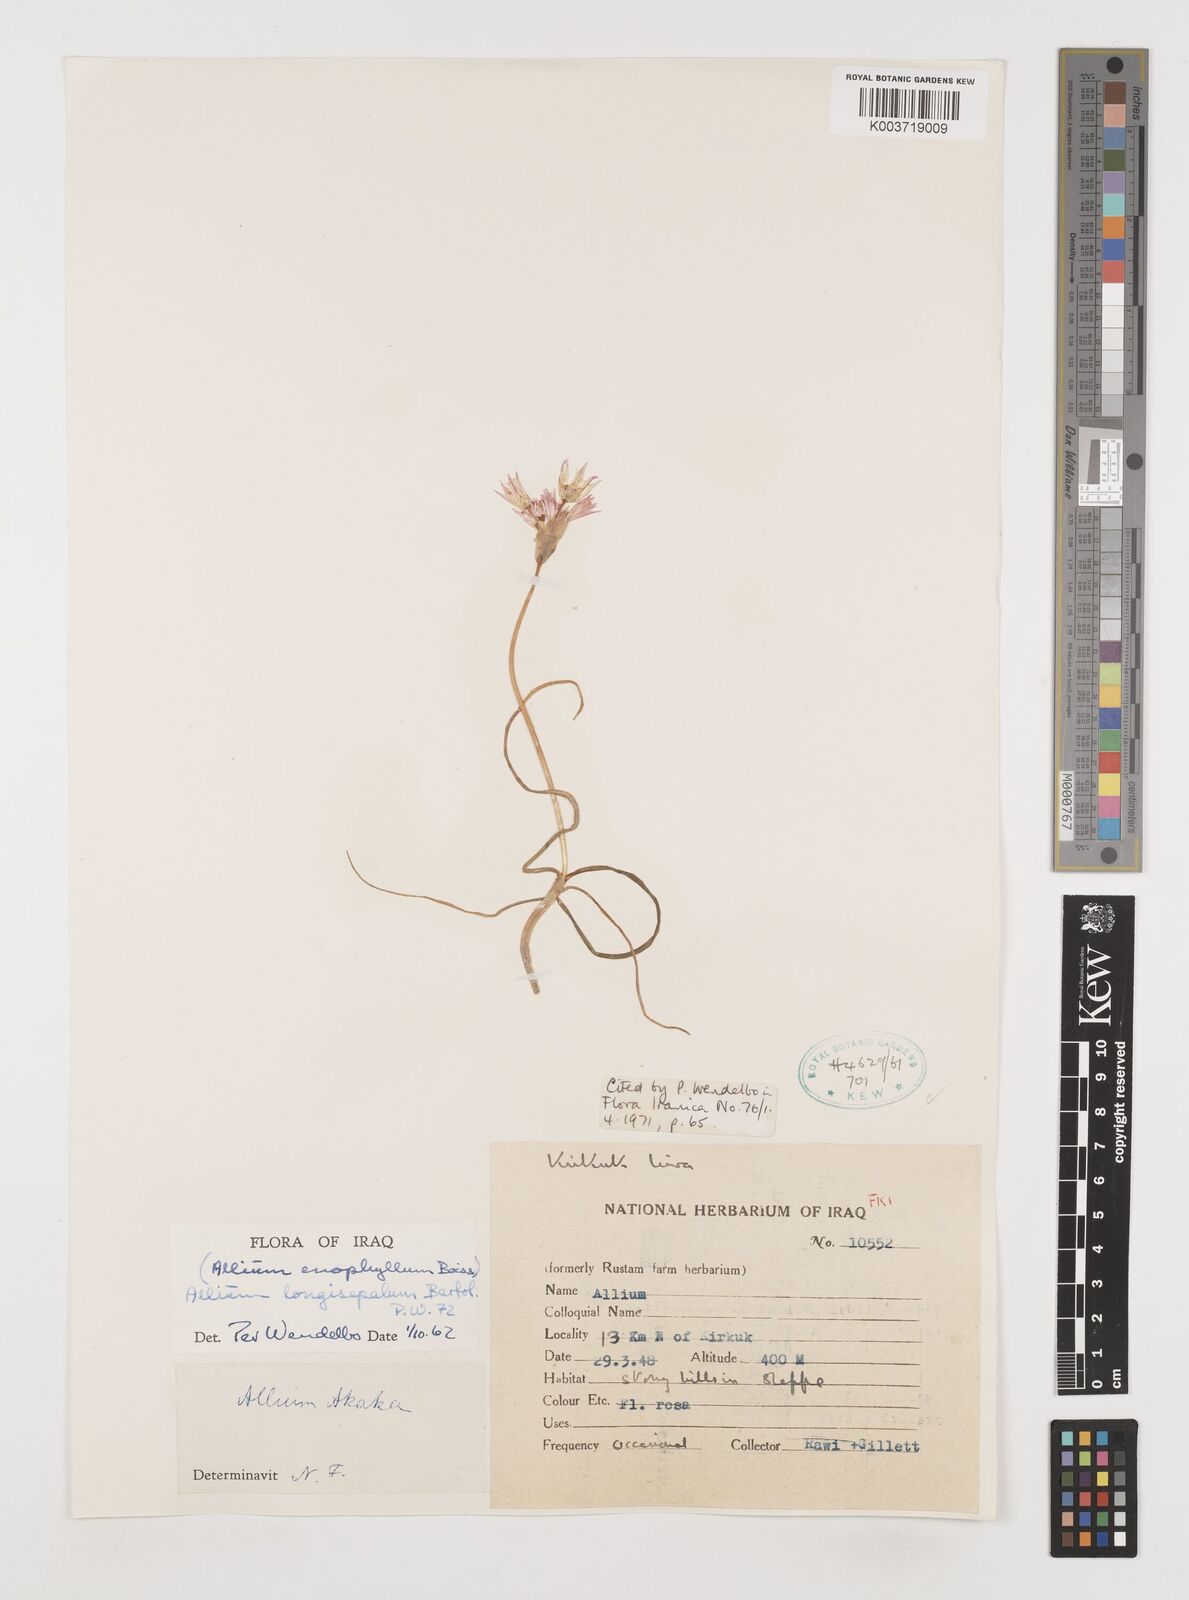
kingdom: Plantae
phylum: Tracheophyta
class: Liliopsida
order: Asparagales
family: Amaryllidaceae
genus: Allium
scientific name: Allium longisepalum
